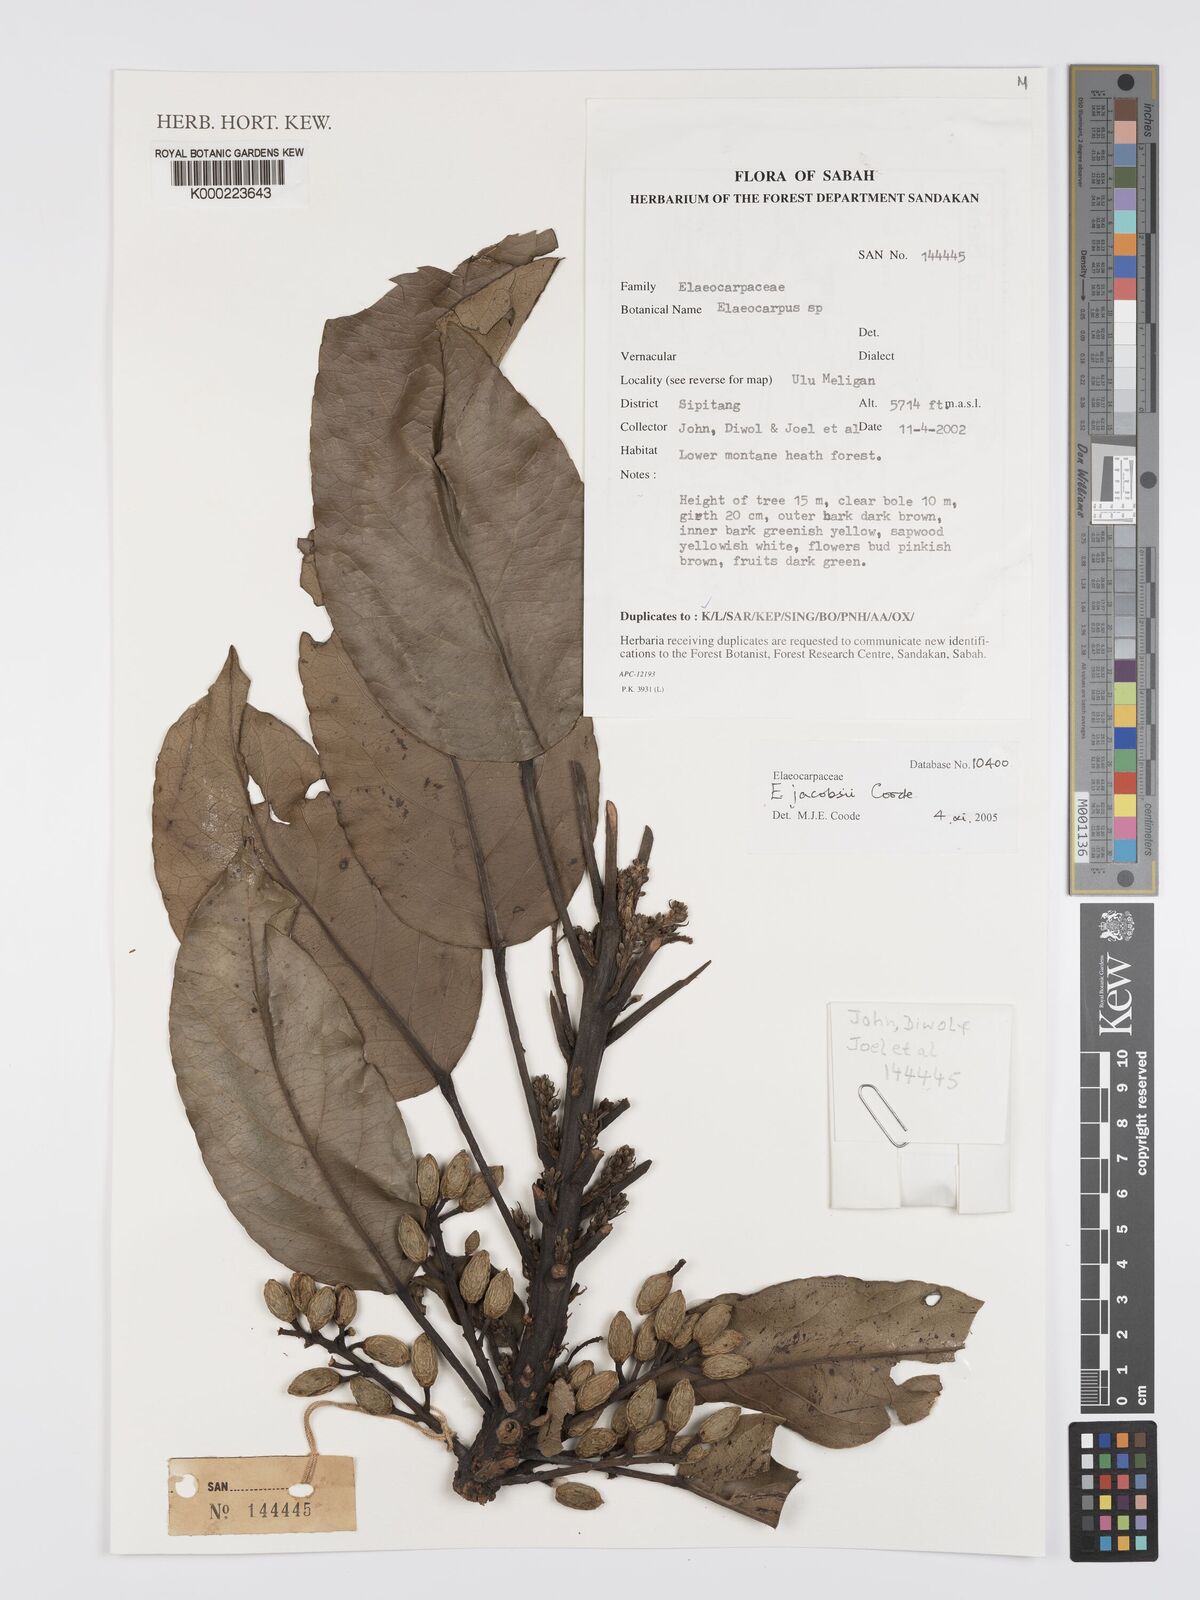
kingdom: Plantae
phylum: Tracheophyta
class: Magnoliopsida
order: Oxalidales
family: Elaeocarpaceae
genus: Elaeocarpus
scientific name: Elaeocarpus
